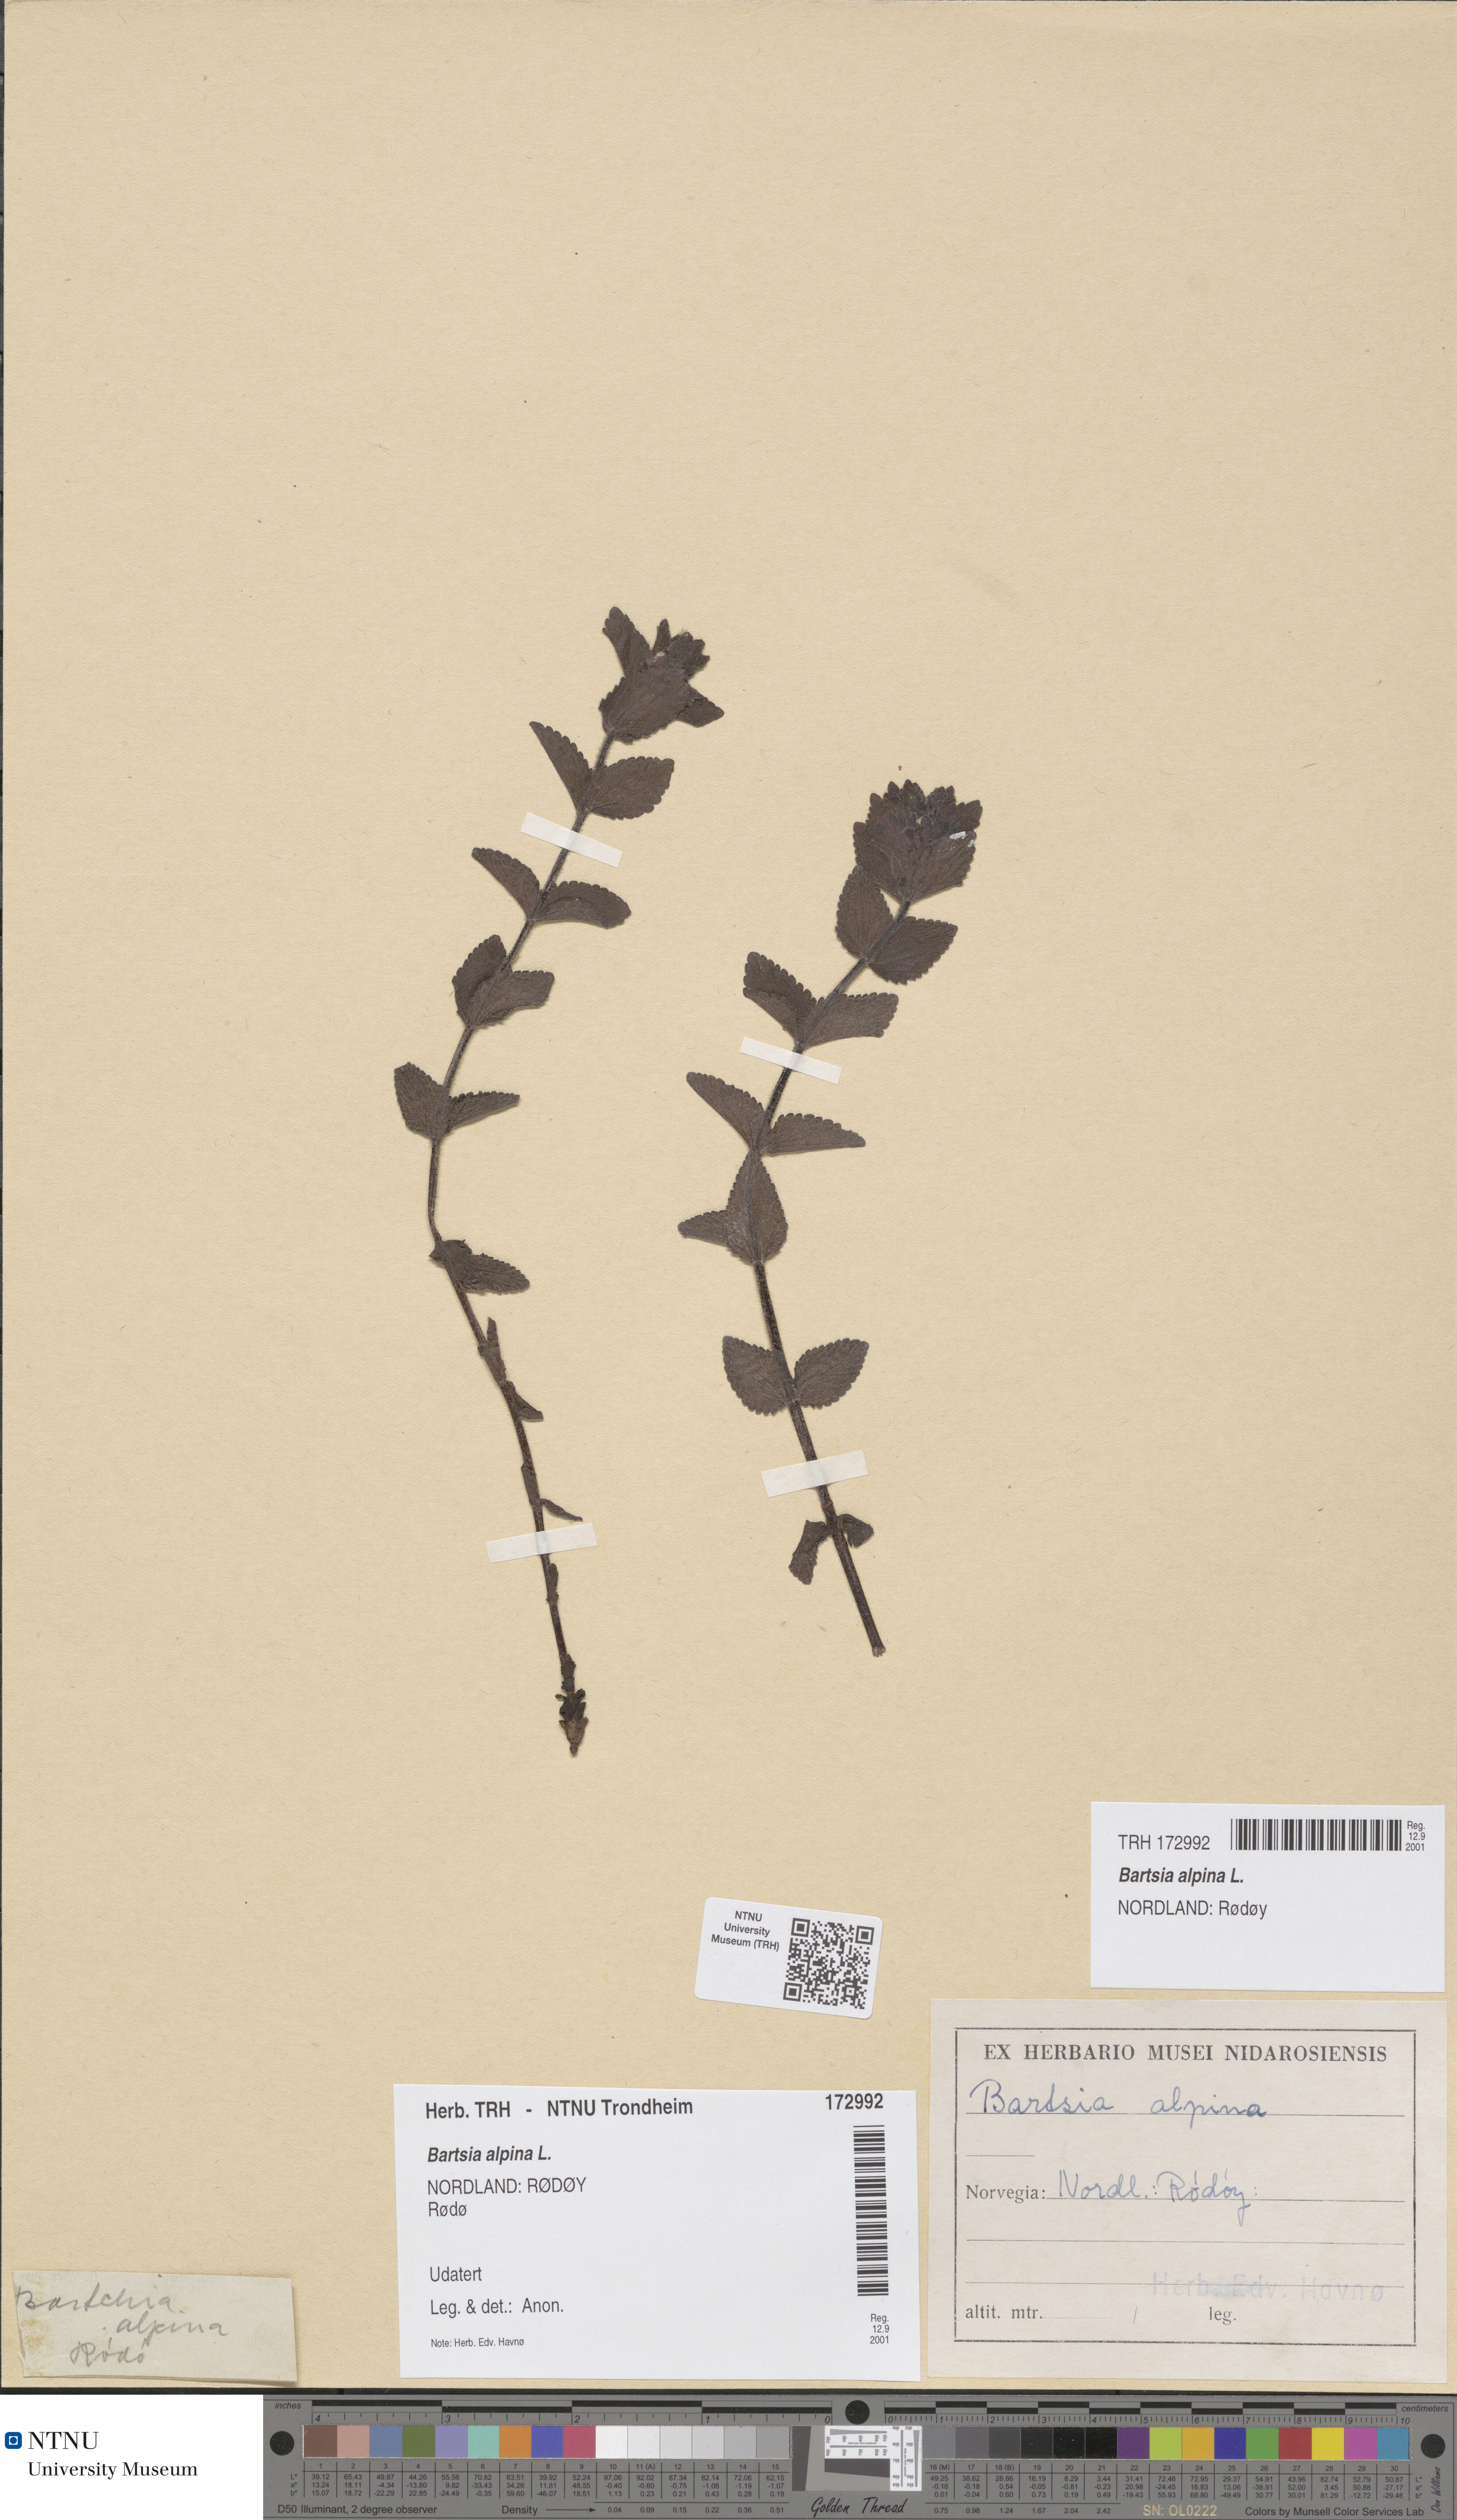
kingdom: Plantae
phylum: Tracheophyta
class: Magnoliopsida
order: Lamiales
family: Orobanchaceae
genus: Bartsia
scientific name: Bartsia alpina
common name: Alpine bartsia
